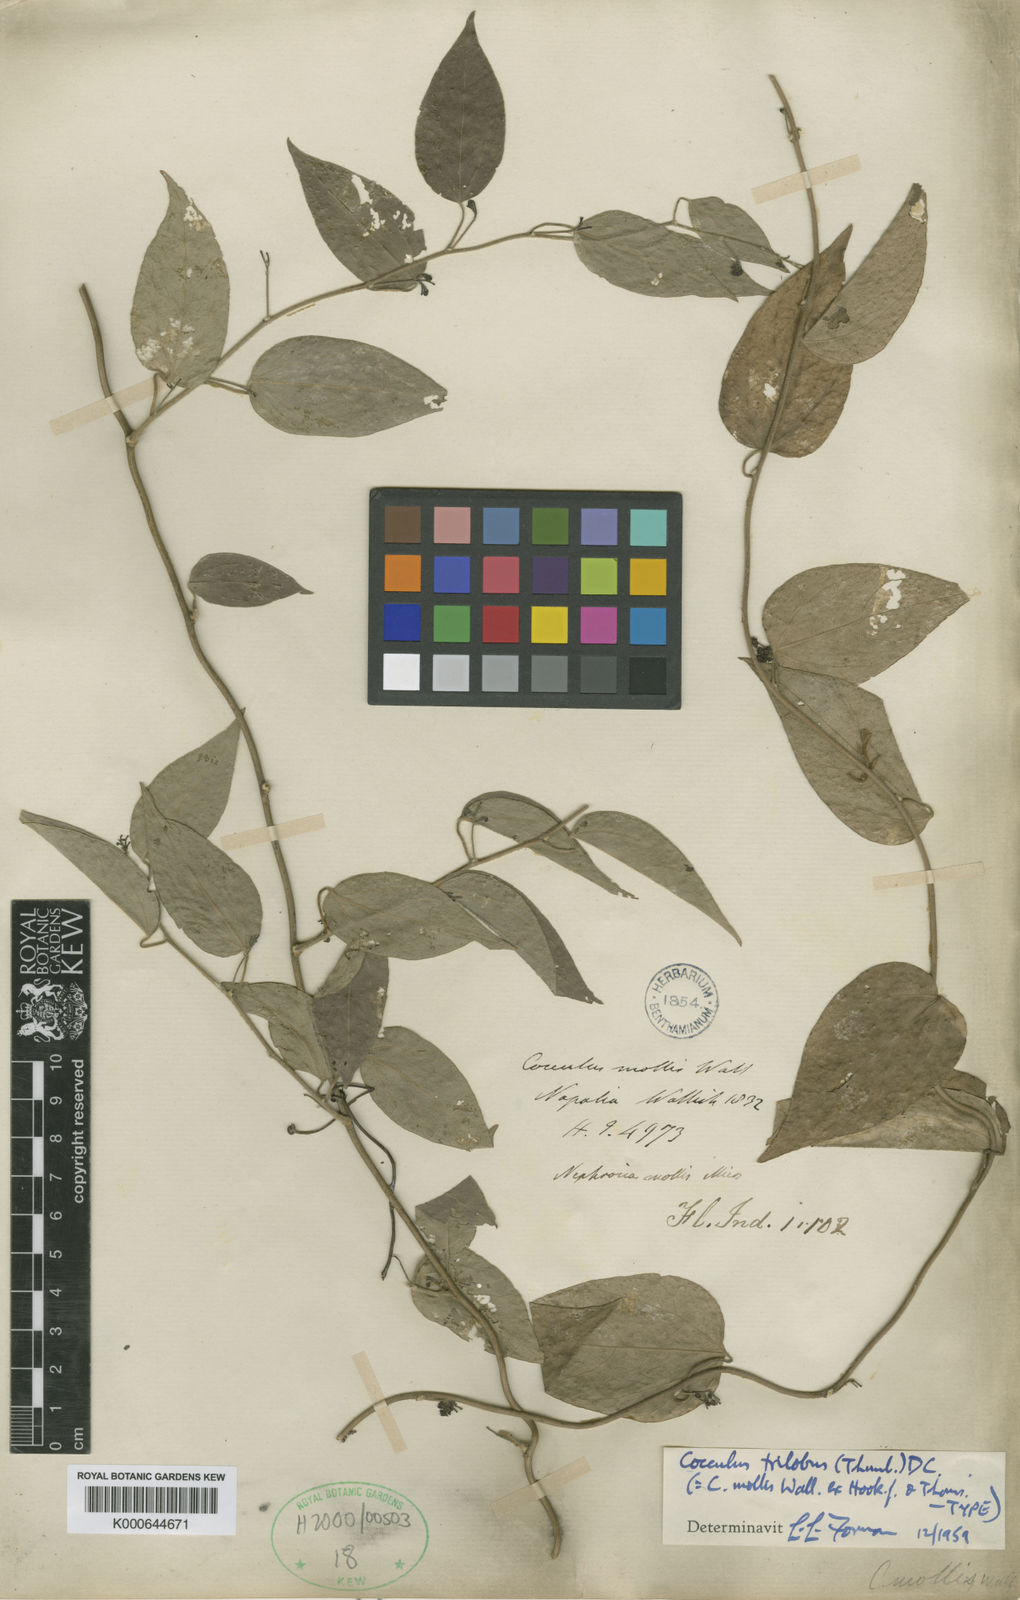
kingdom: Plantae
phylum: Tracheophyta
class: Magnoliopsida
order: Ranunculales
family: Menispermaceae
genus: Cocculus
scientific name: Cocculus orbiculatus
